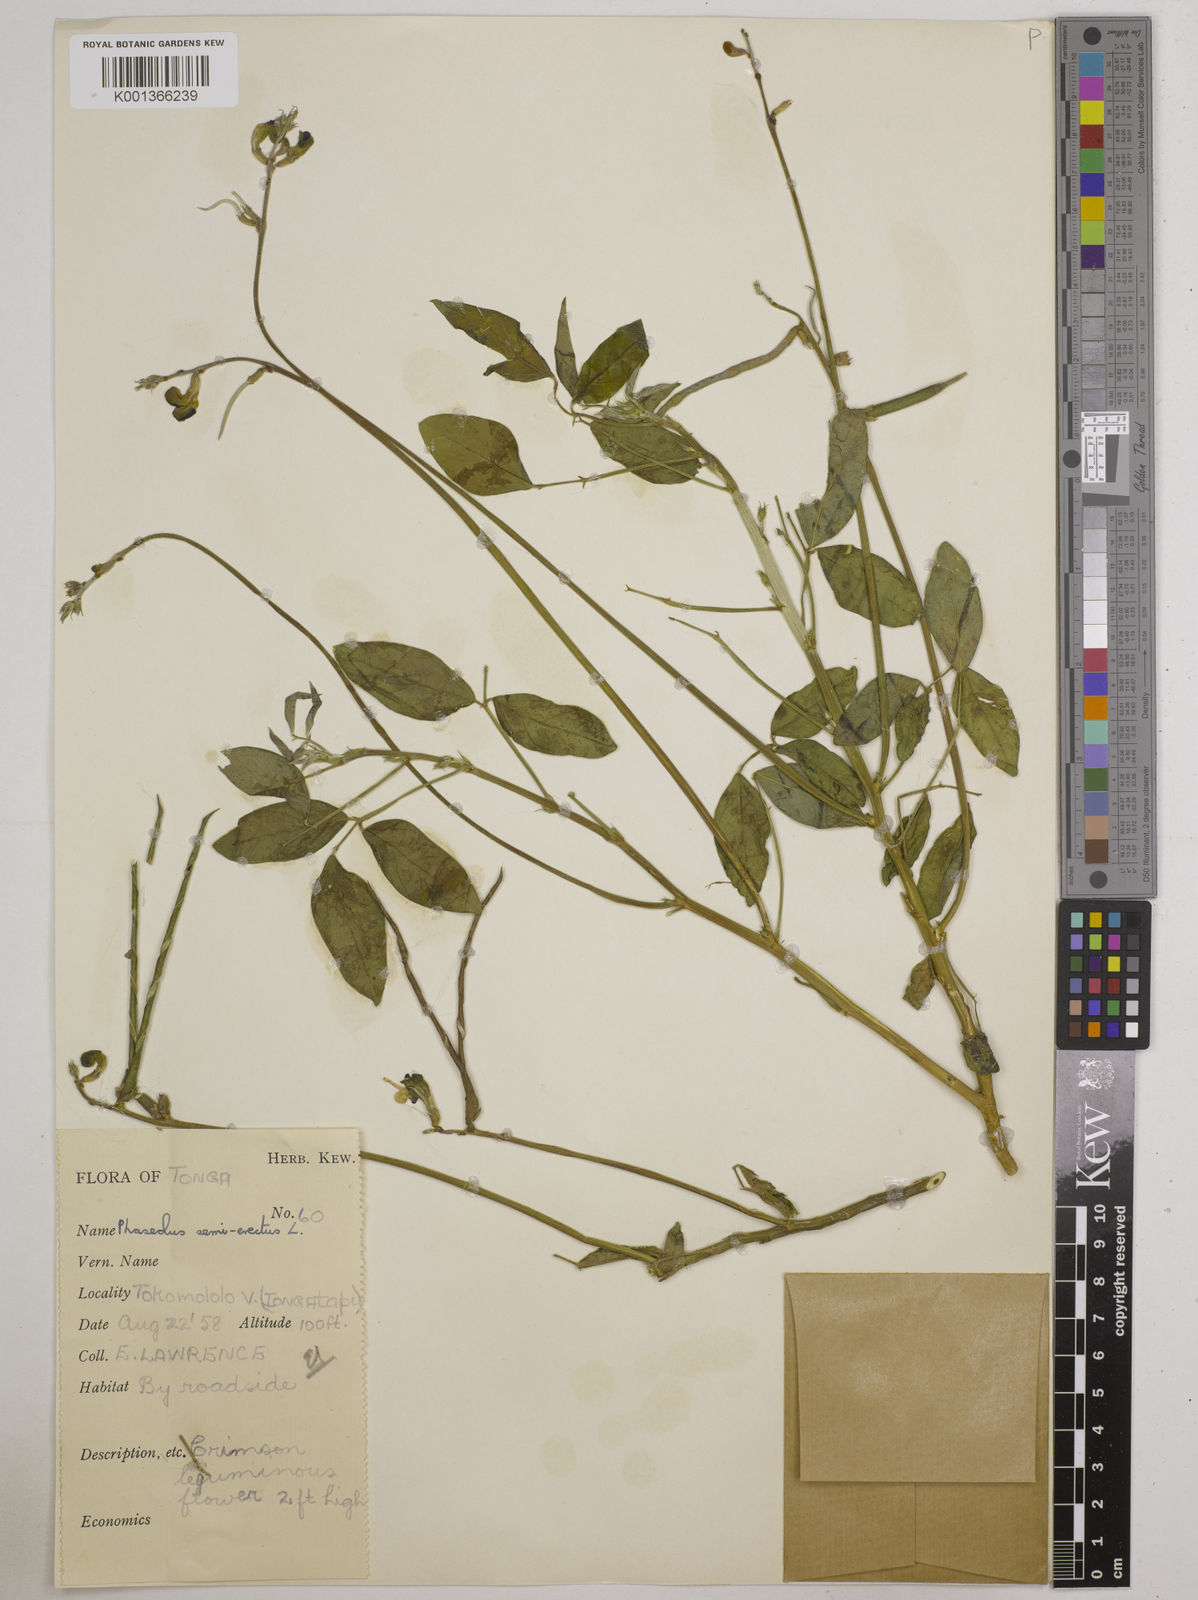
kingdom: Plantae
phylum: Tracheophyta
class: Magnoliopsida
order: Fabales
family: Fabaceae
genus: Macroptilium
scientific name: Macroptilium lathyroides
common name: Wild bushbean
